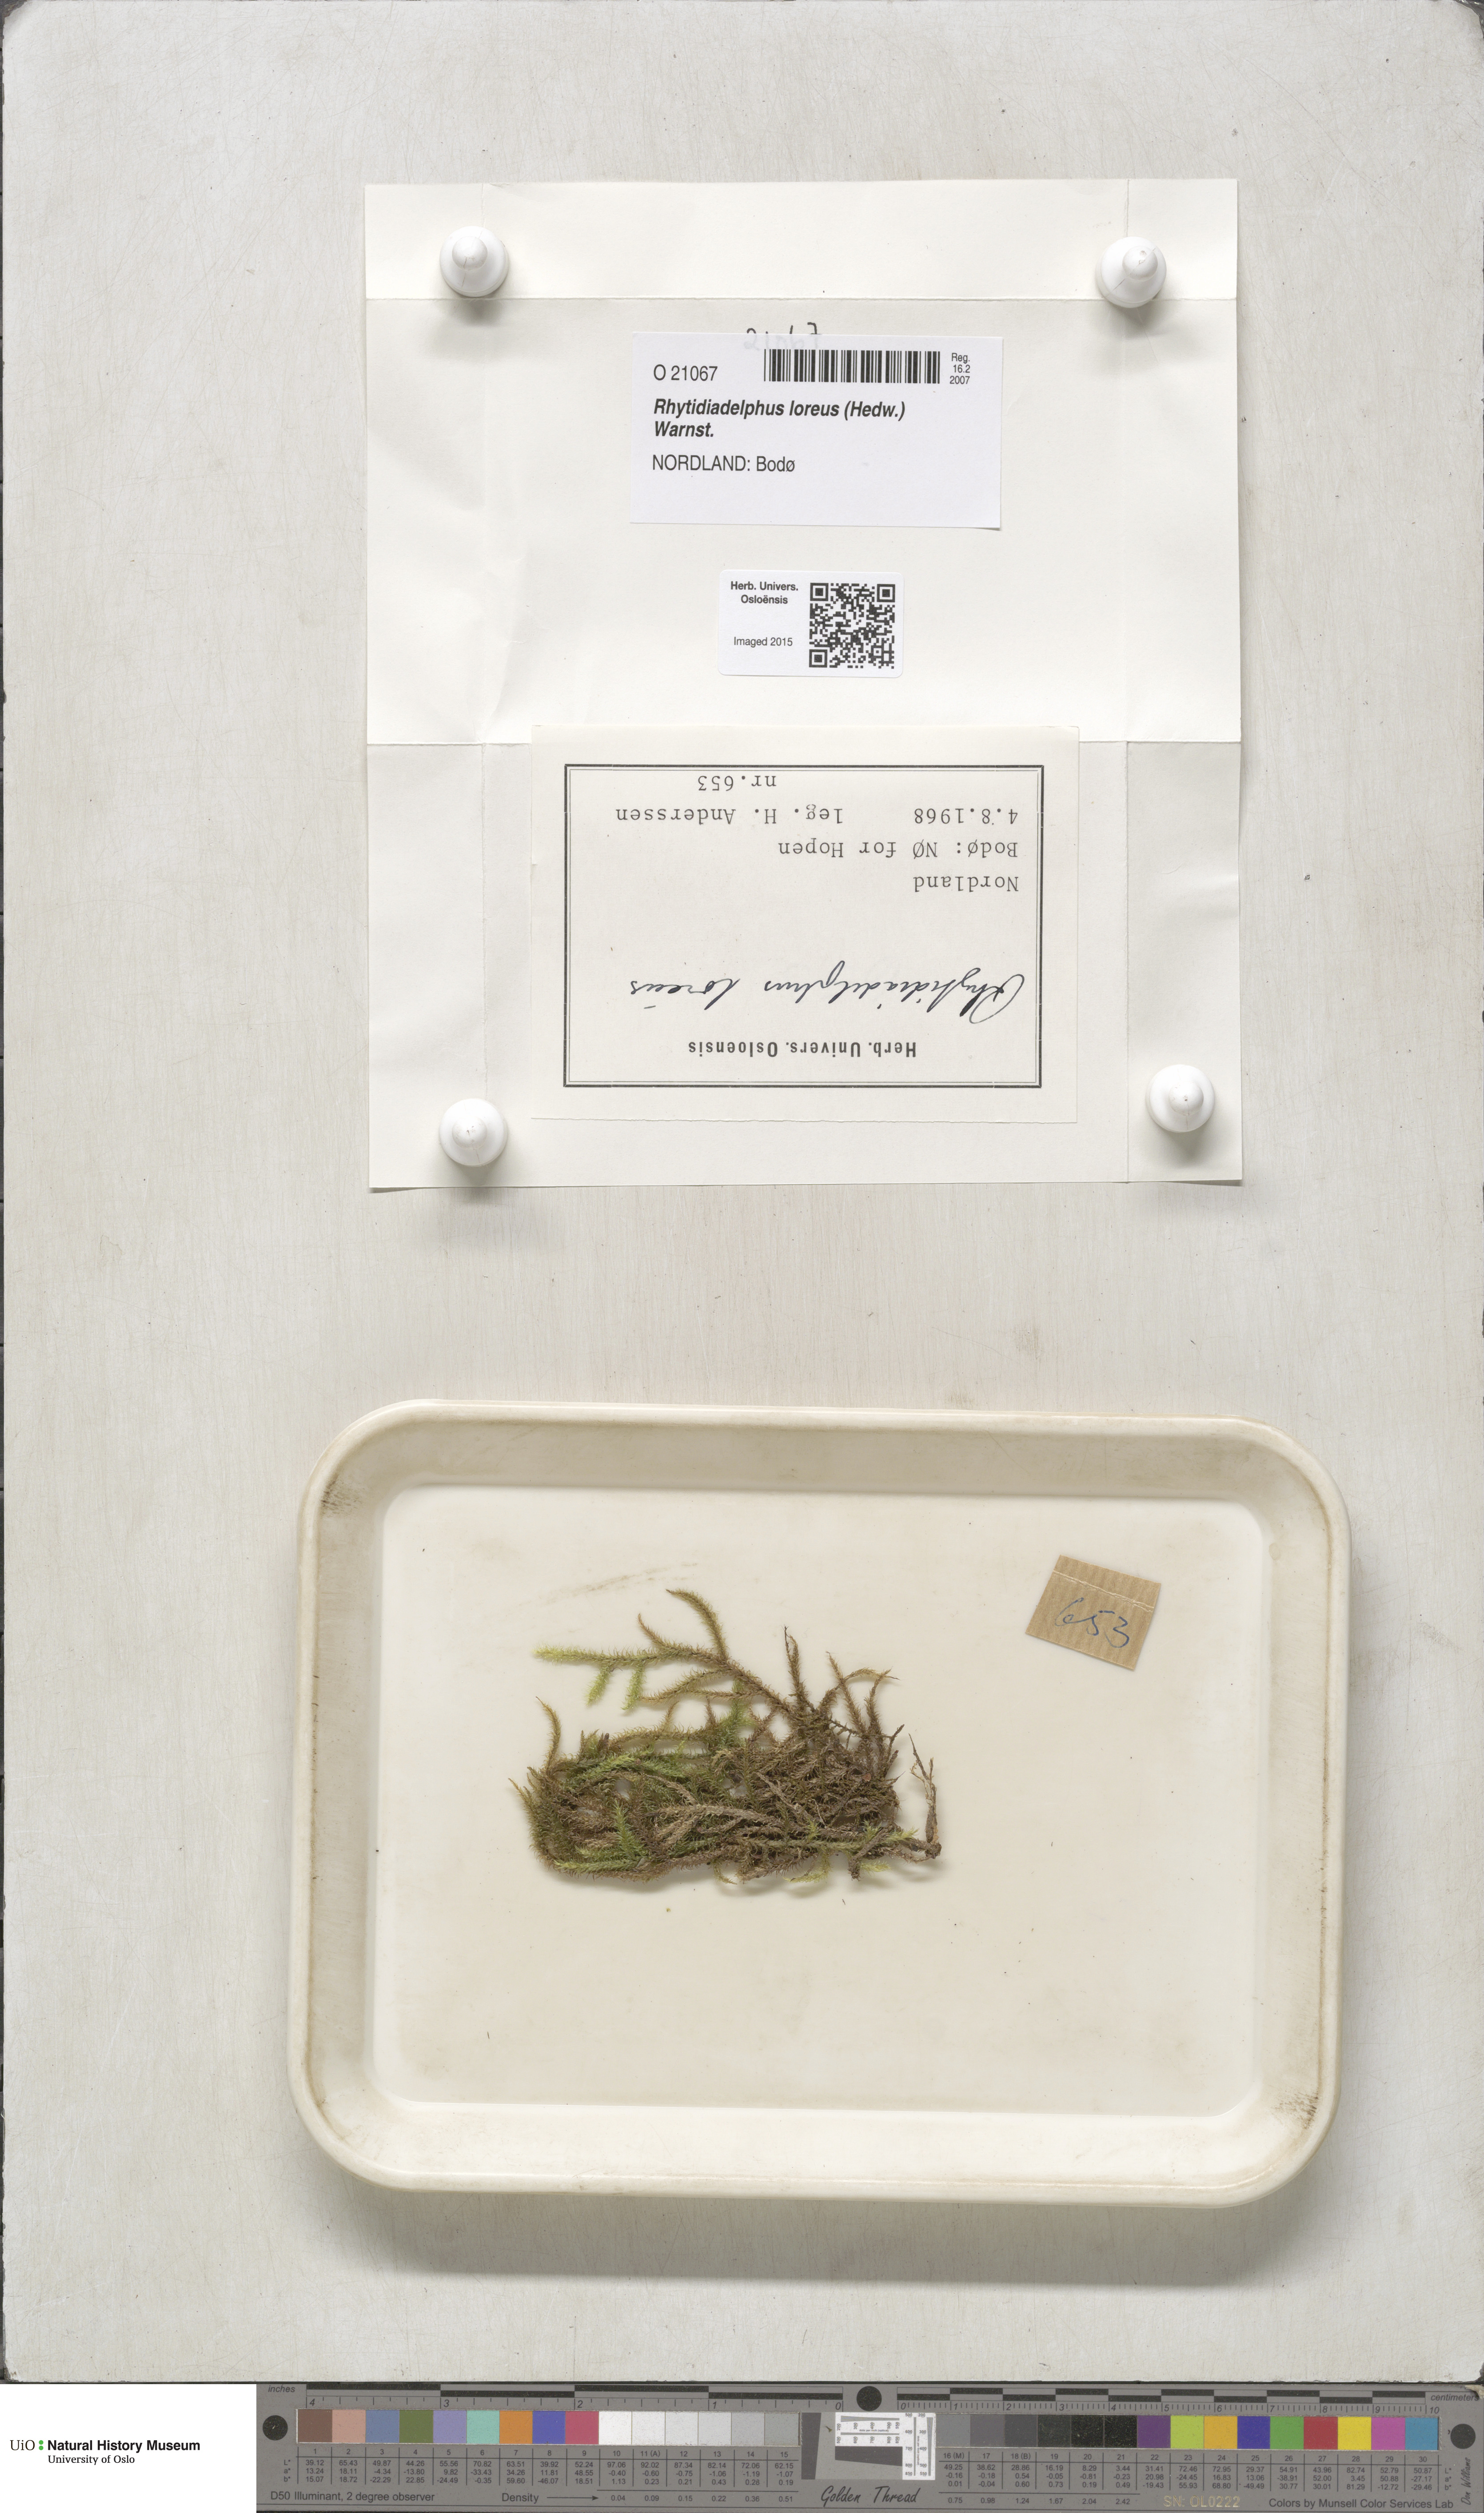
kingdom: Plantae
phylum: Bryophyta
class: Bryopsida
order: Hypnales
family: Hylocomiaceae
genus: Rhytidiadelphus
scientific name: Rhytidiadelphus loreus
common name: Lanky moss
